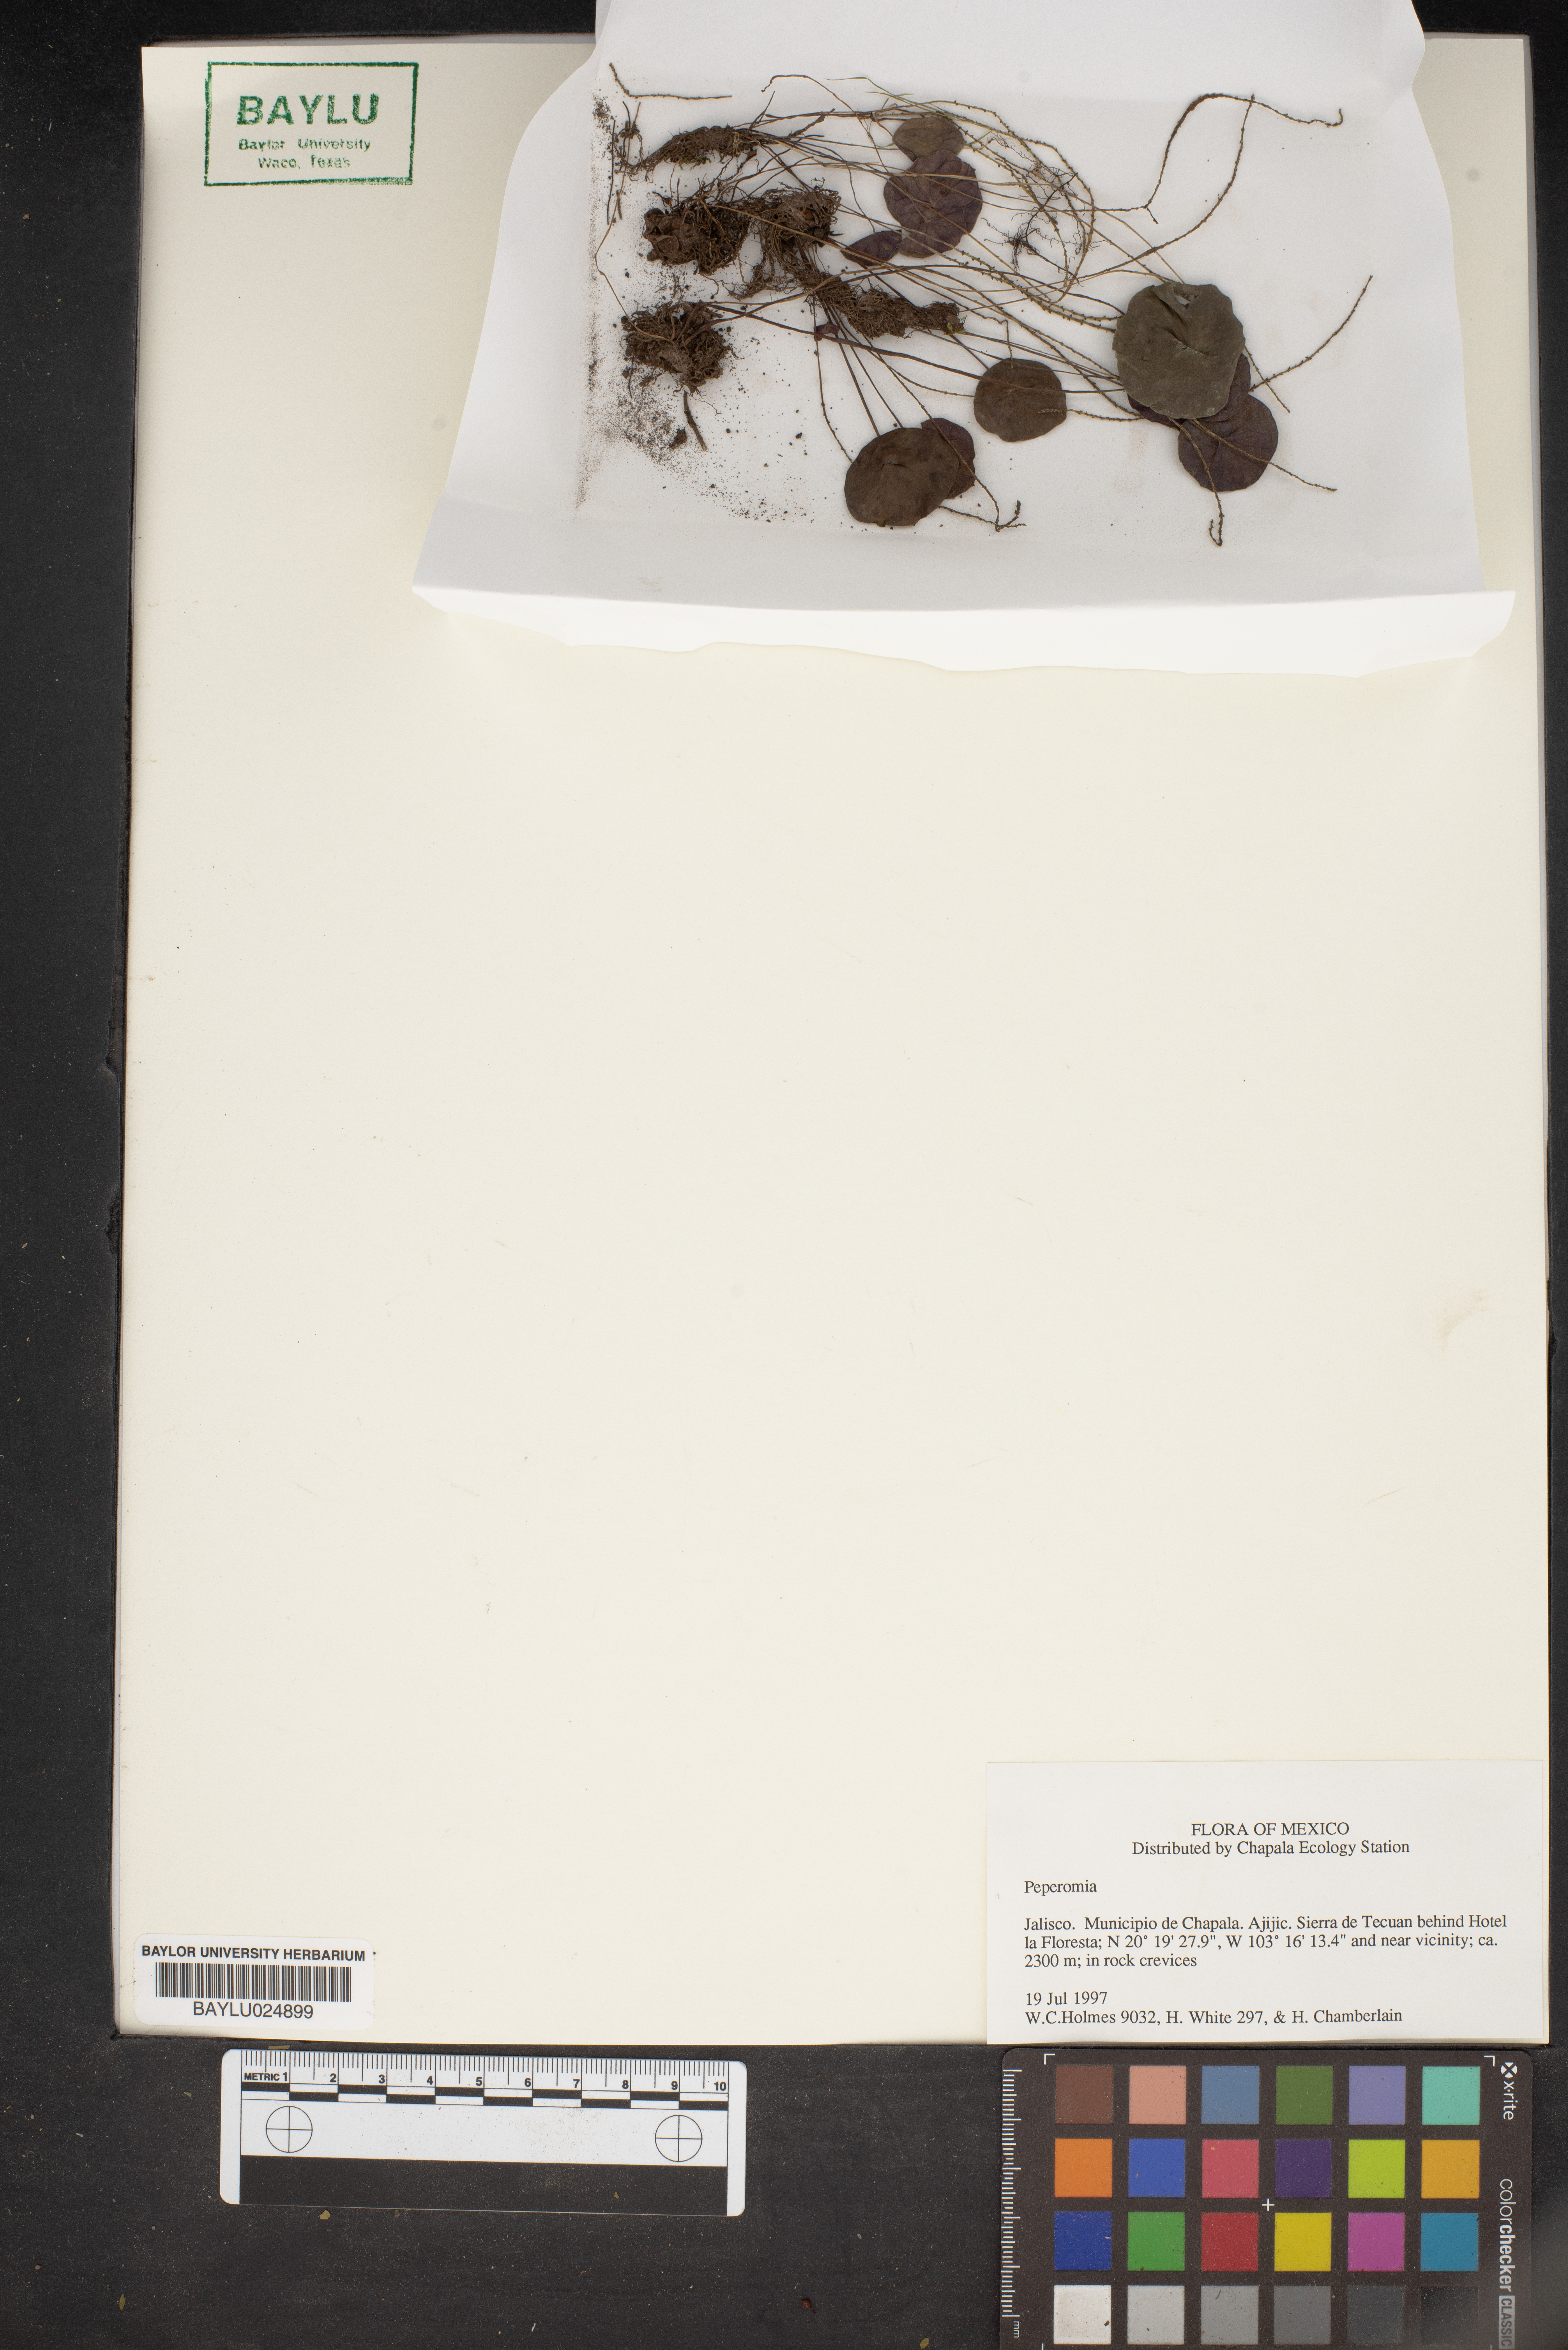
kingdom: Plantae
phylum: Tracheophyta
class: Magnoliopsida
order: Piperales
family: Piperaceae
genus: Peperomia
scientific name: Peperomia
